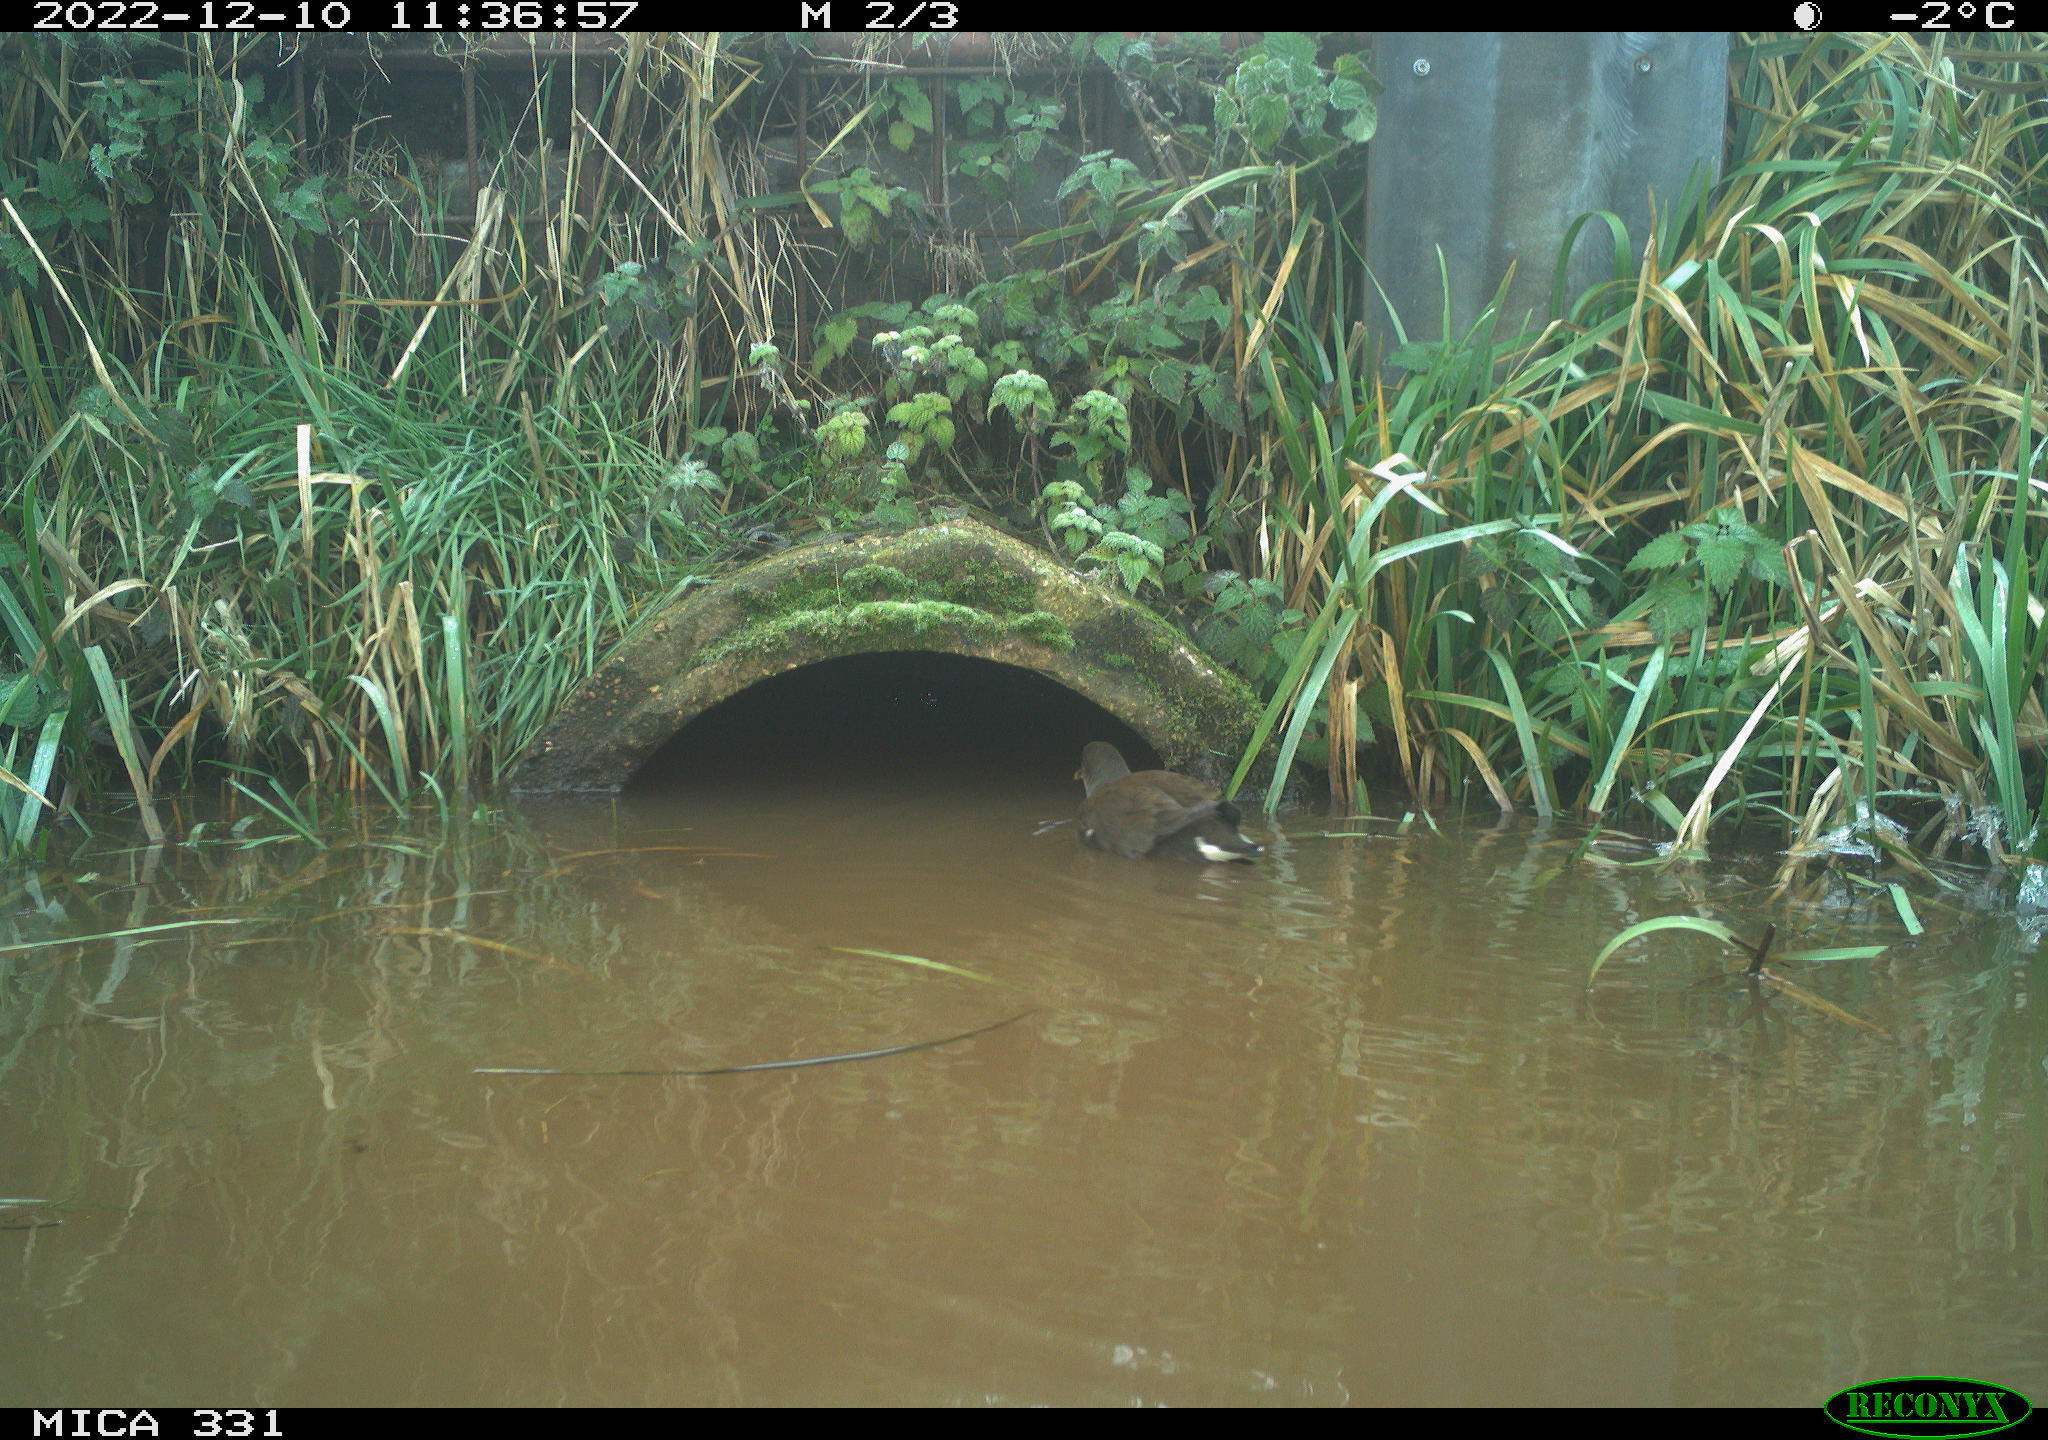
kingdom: Animalia
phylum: Chordata
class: Aves
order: Gruiformes
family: Rallidae
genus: Gallinula
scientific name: Gallinula chloropus
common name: Common moorhen
